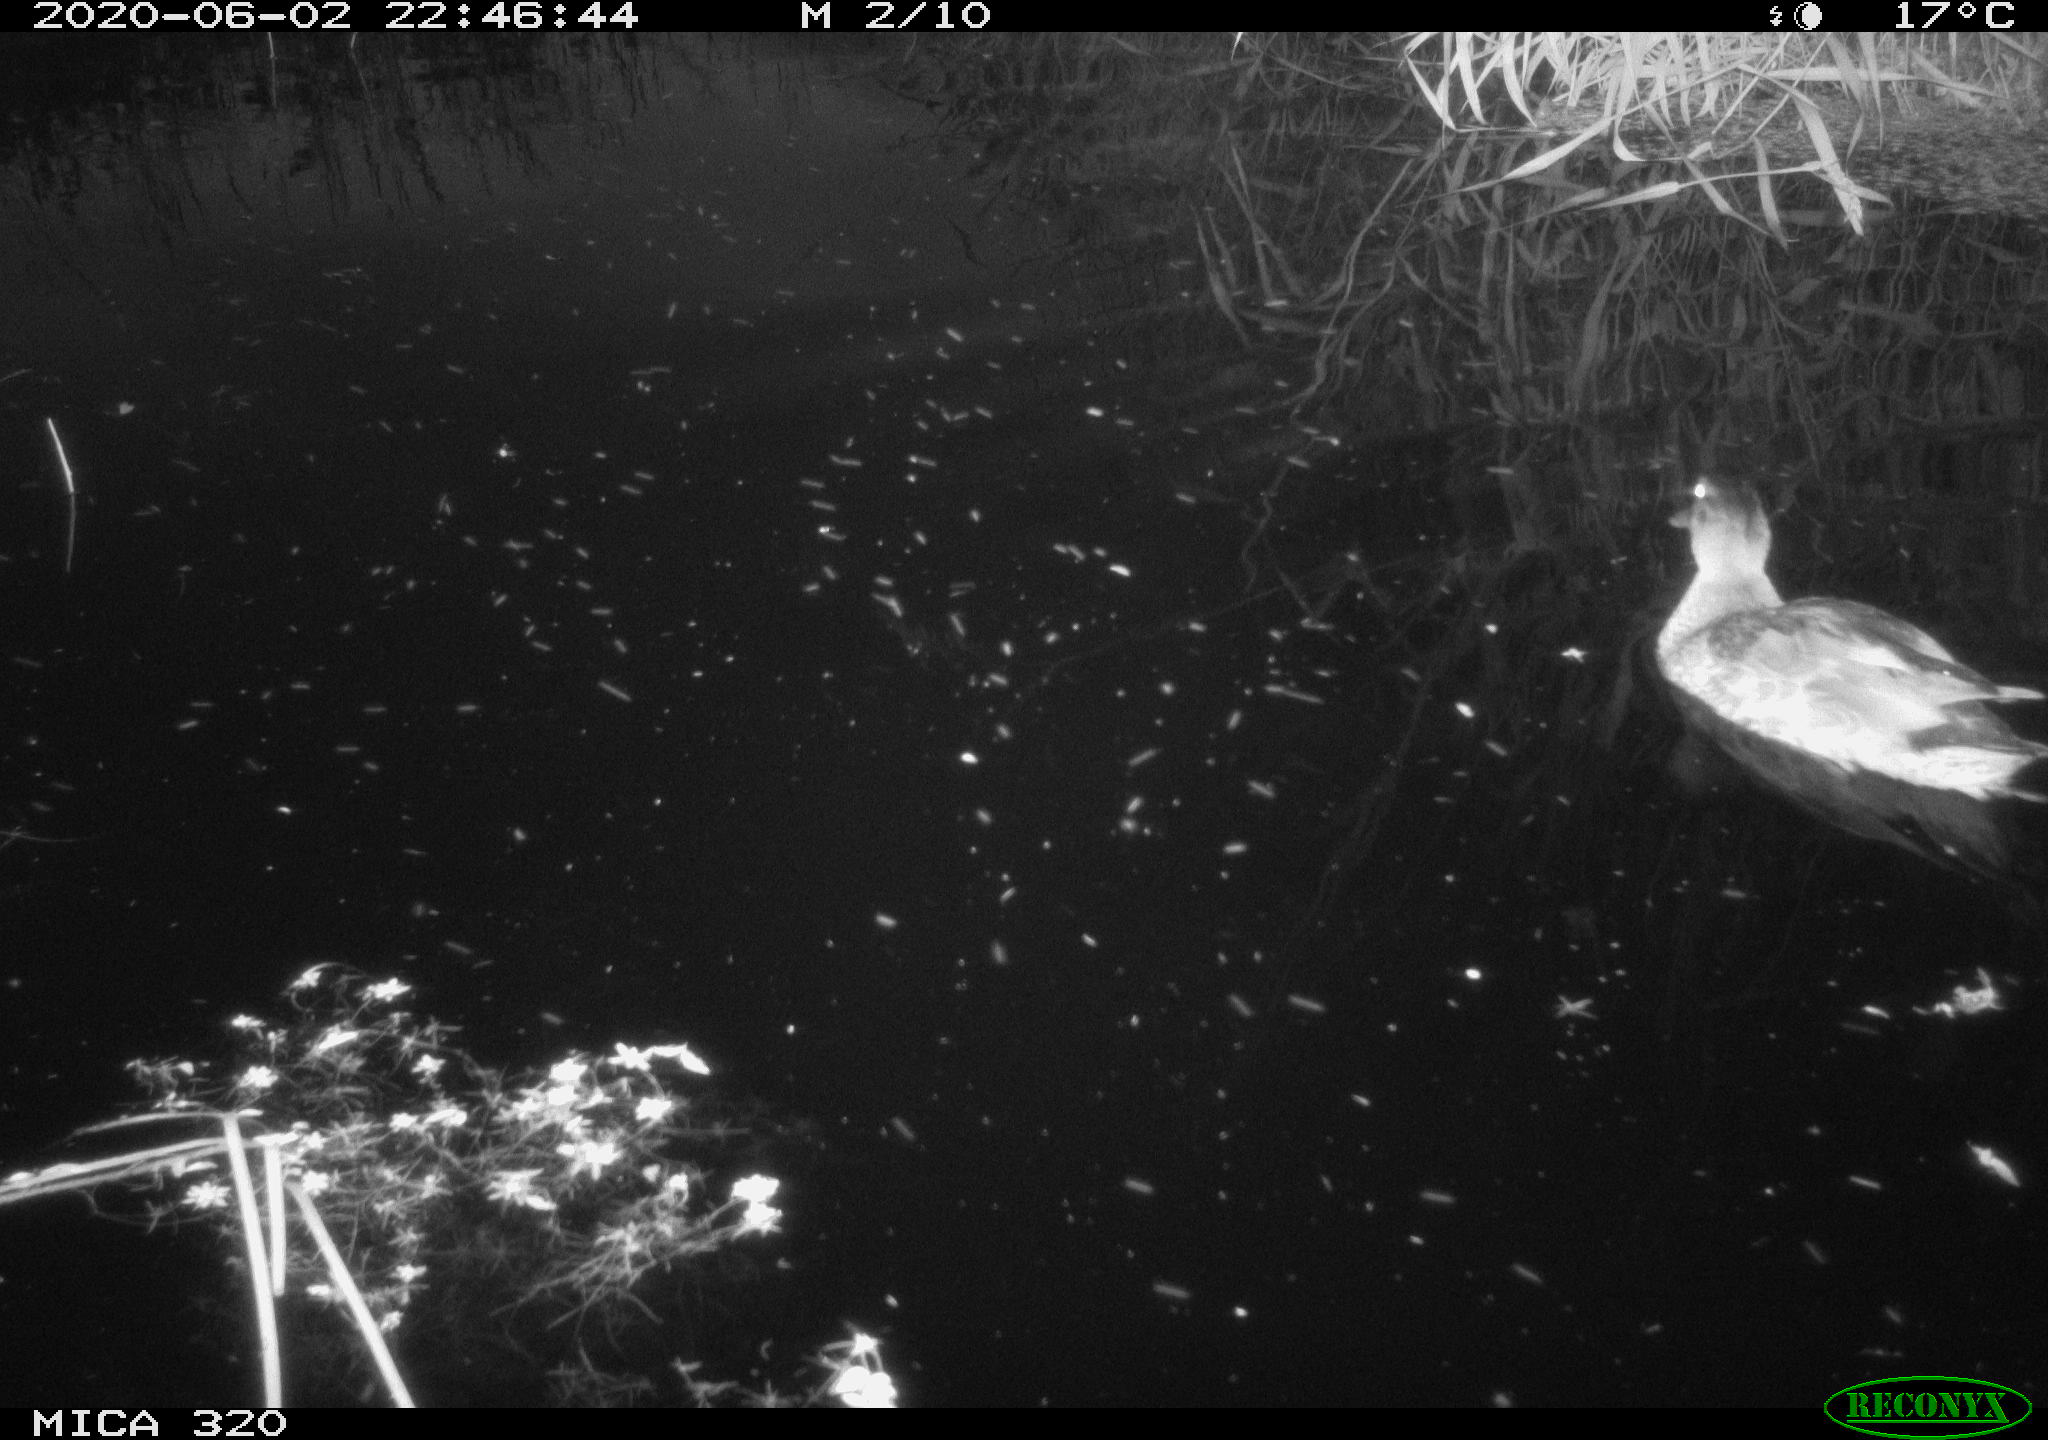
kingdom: Animalia
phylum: Chordata
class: Aves
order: Anseriformes
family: Anatidae
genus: Anas
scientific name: Anas platyrhynchos
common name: Mallard
